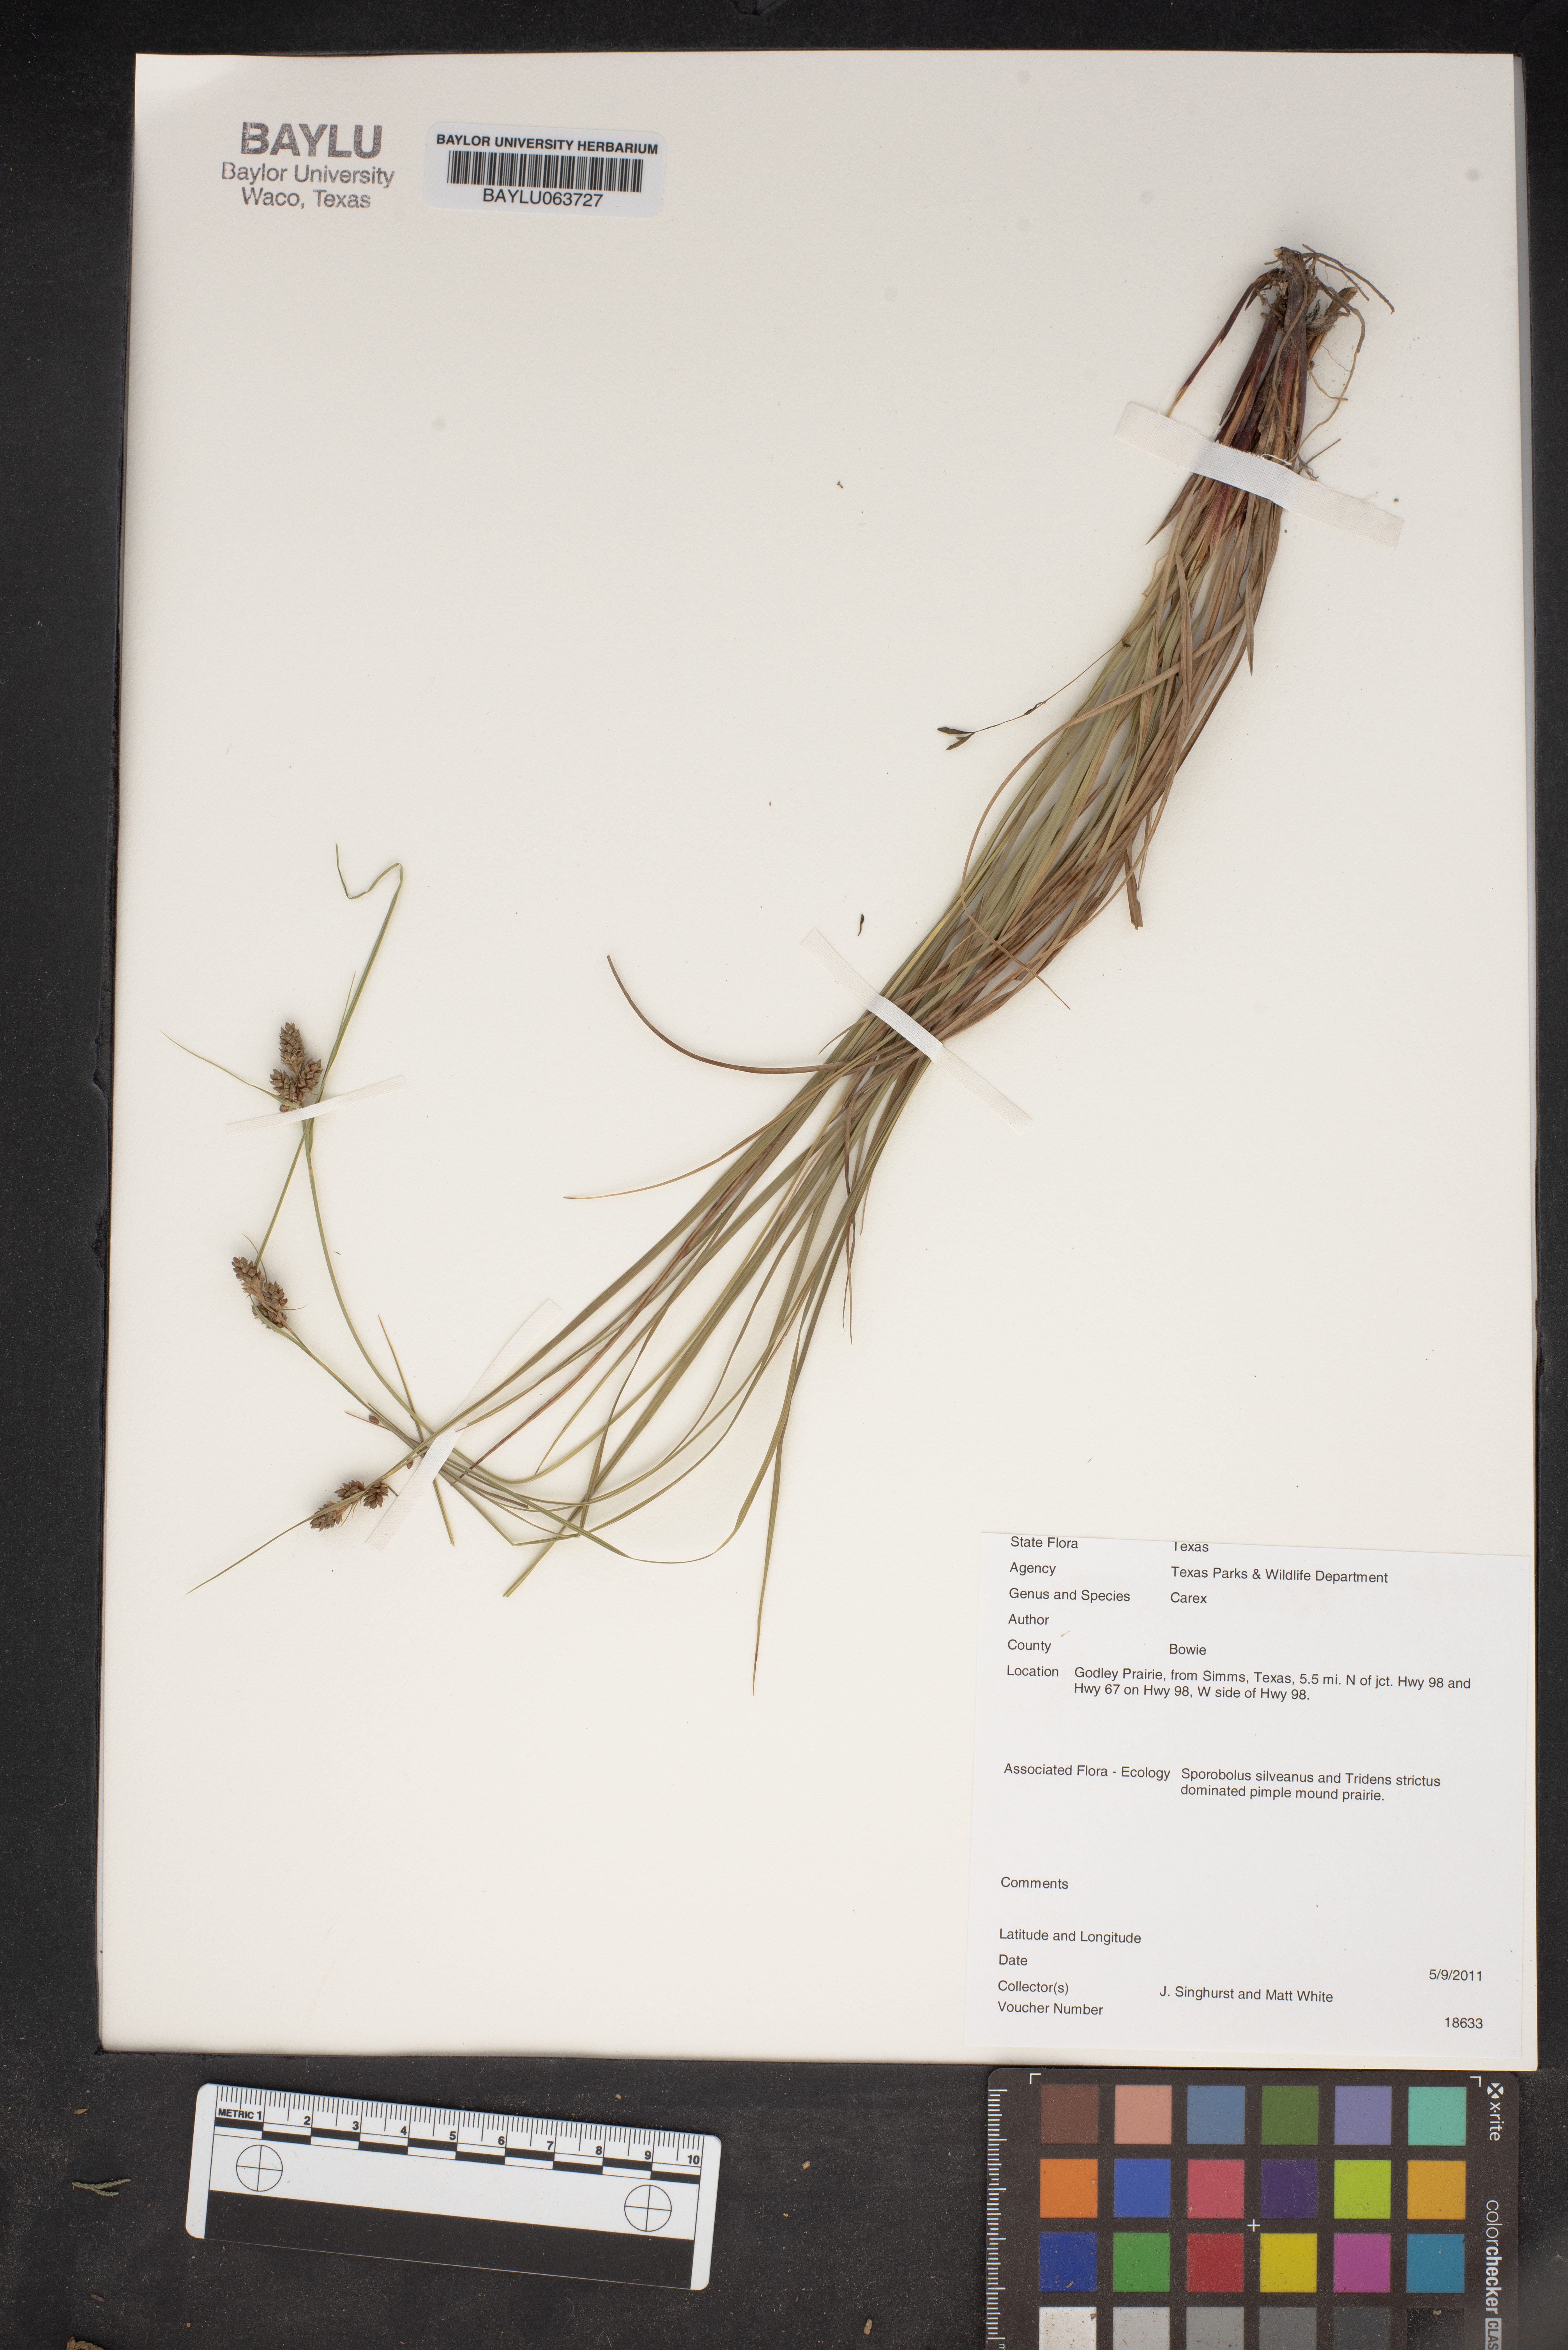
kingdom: Plantae
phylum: Tracheophyta
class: Liliopsida
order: Poales
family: Cyperaceae
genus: Carex
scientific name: Carex
